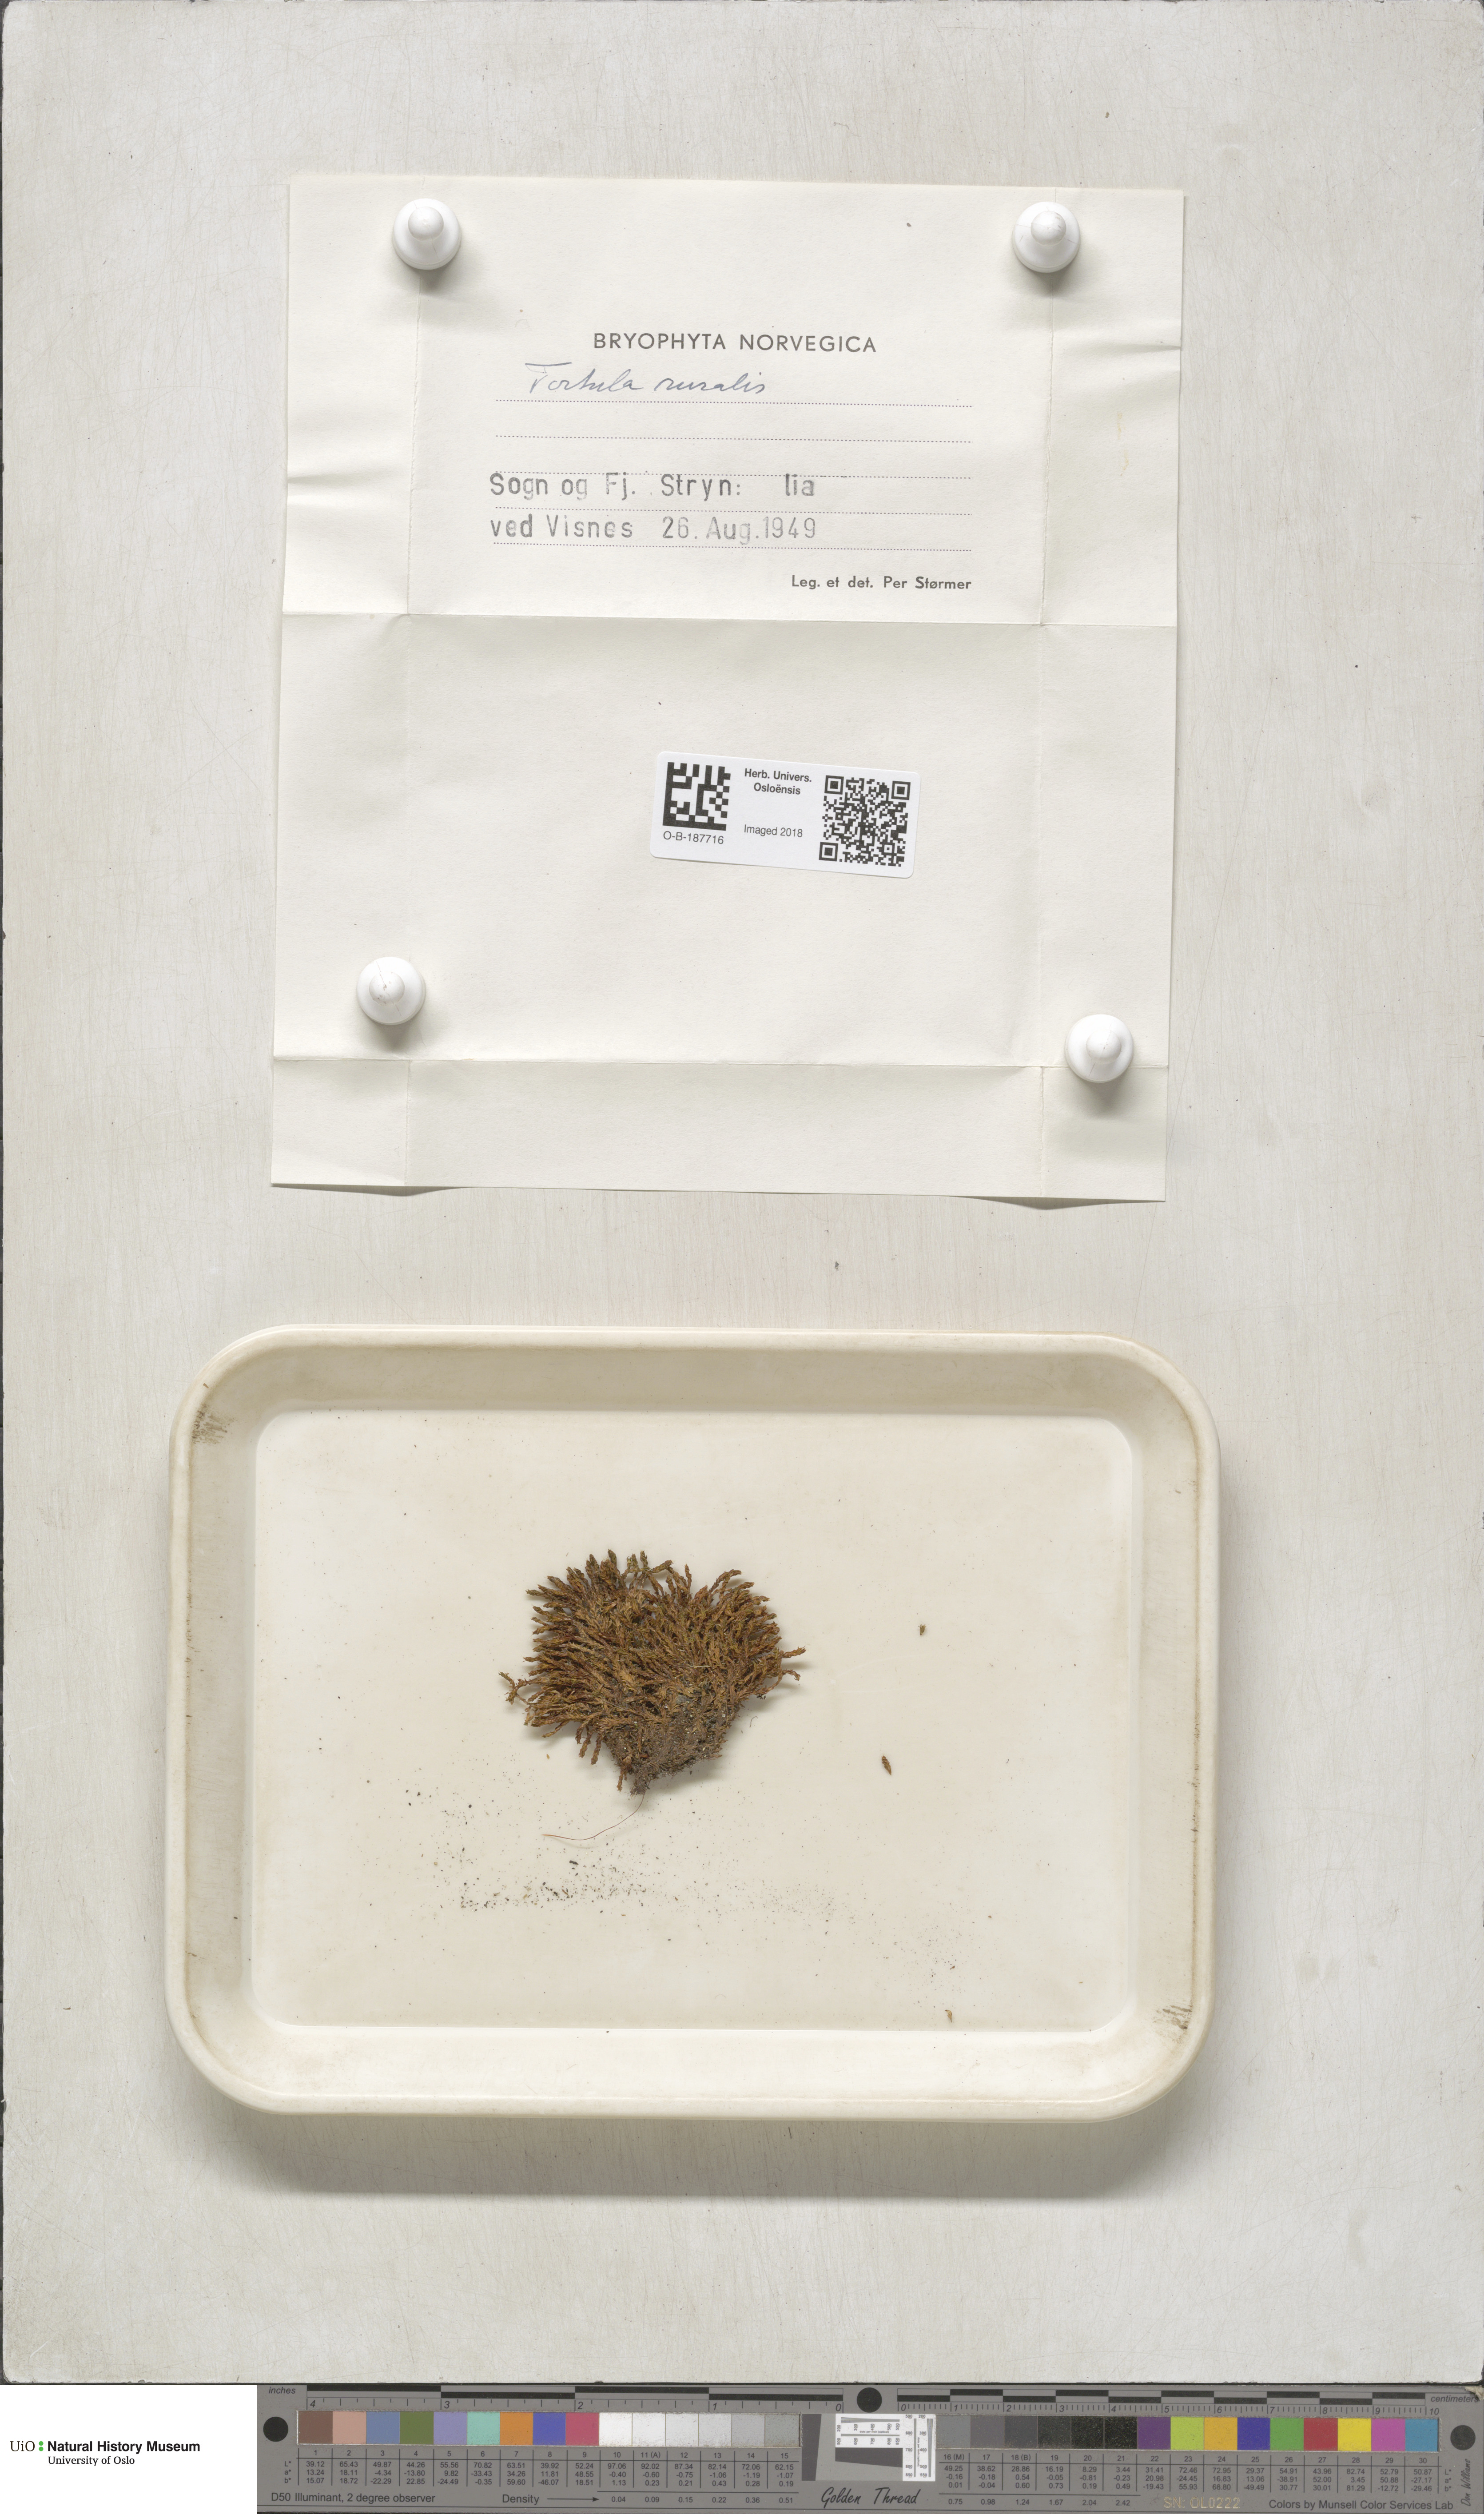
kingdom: Plantae
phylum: Bryophyta
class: Bryopsida
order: Pottiales
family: Pottiaceae
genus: Syntrichia
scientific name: Syntrichia ruralis
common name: Sidewalk screw moss
